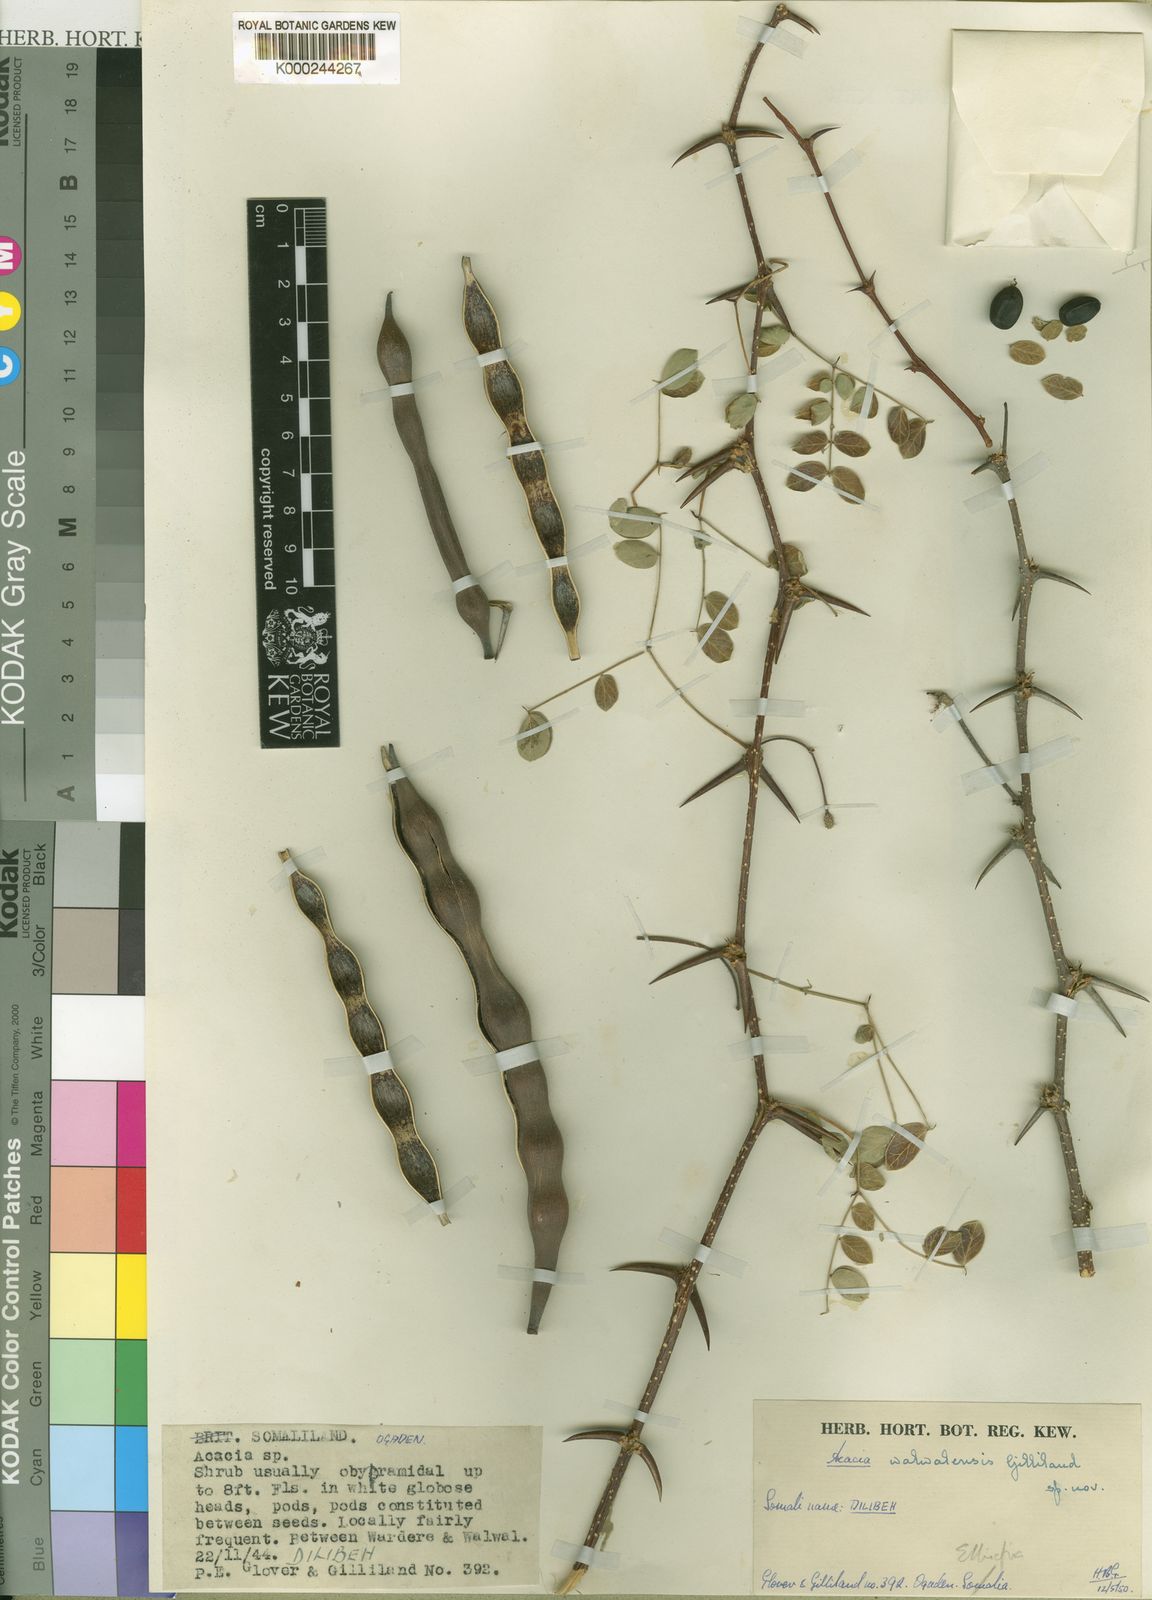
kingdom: Plantae
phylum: Tracheophyta
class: Magnoliopsida
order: Fabales
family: Fabaceae
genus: Vachellia
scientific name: Vachellia walwalensis
